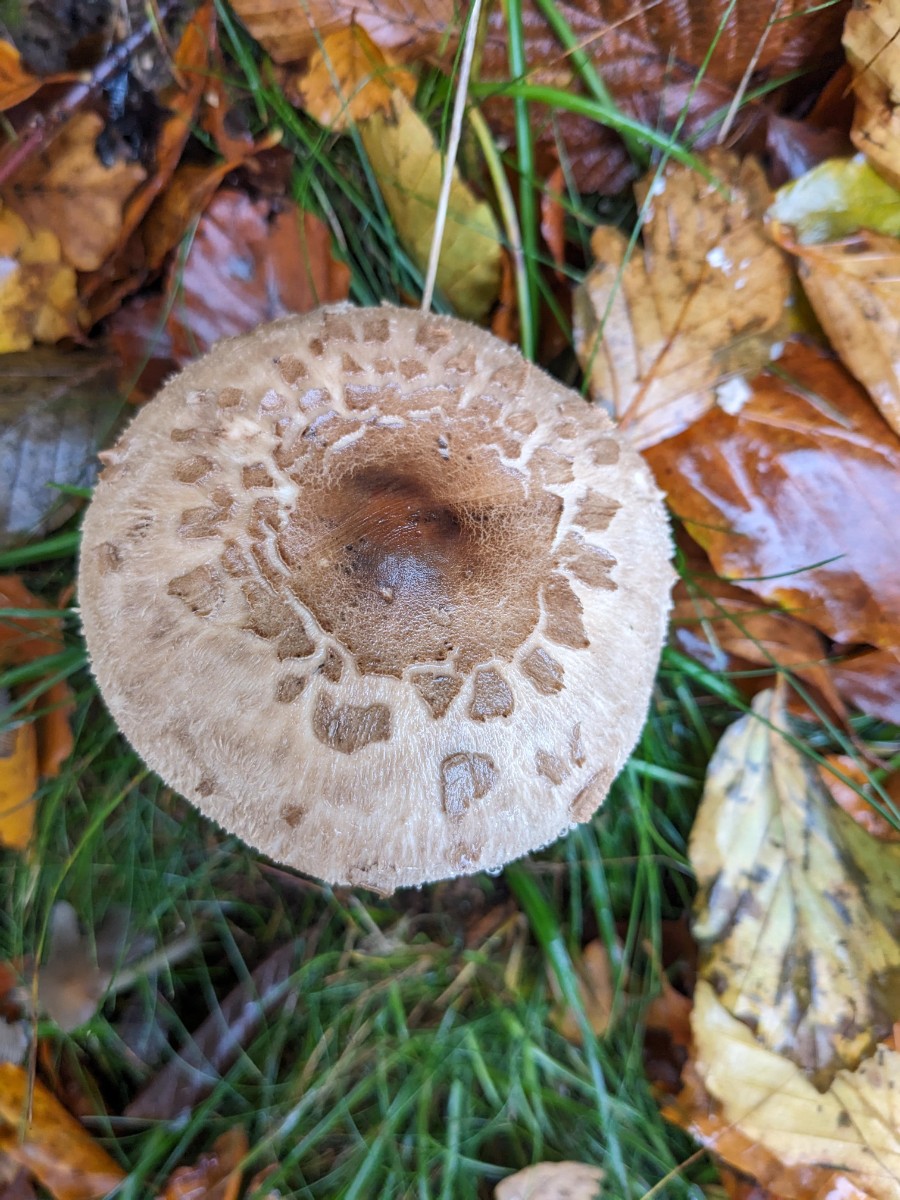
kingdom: Fungi
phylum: Basidiomycota
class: Agaricomycetes
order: Agaricales
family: Agaricaceae
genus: Macrolepiota
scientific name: Macrolepiota mastoidea
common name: puklet kæmpeparasolhat
